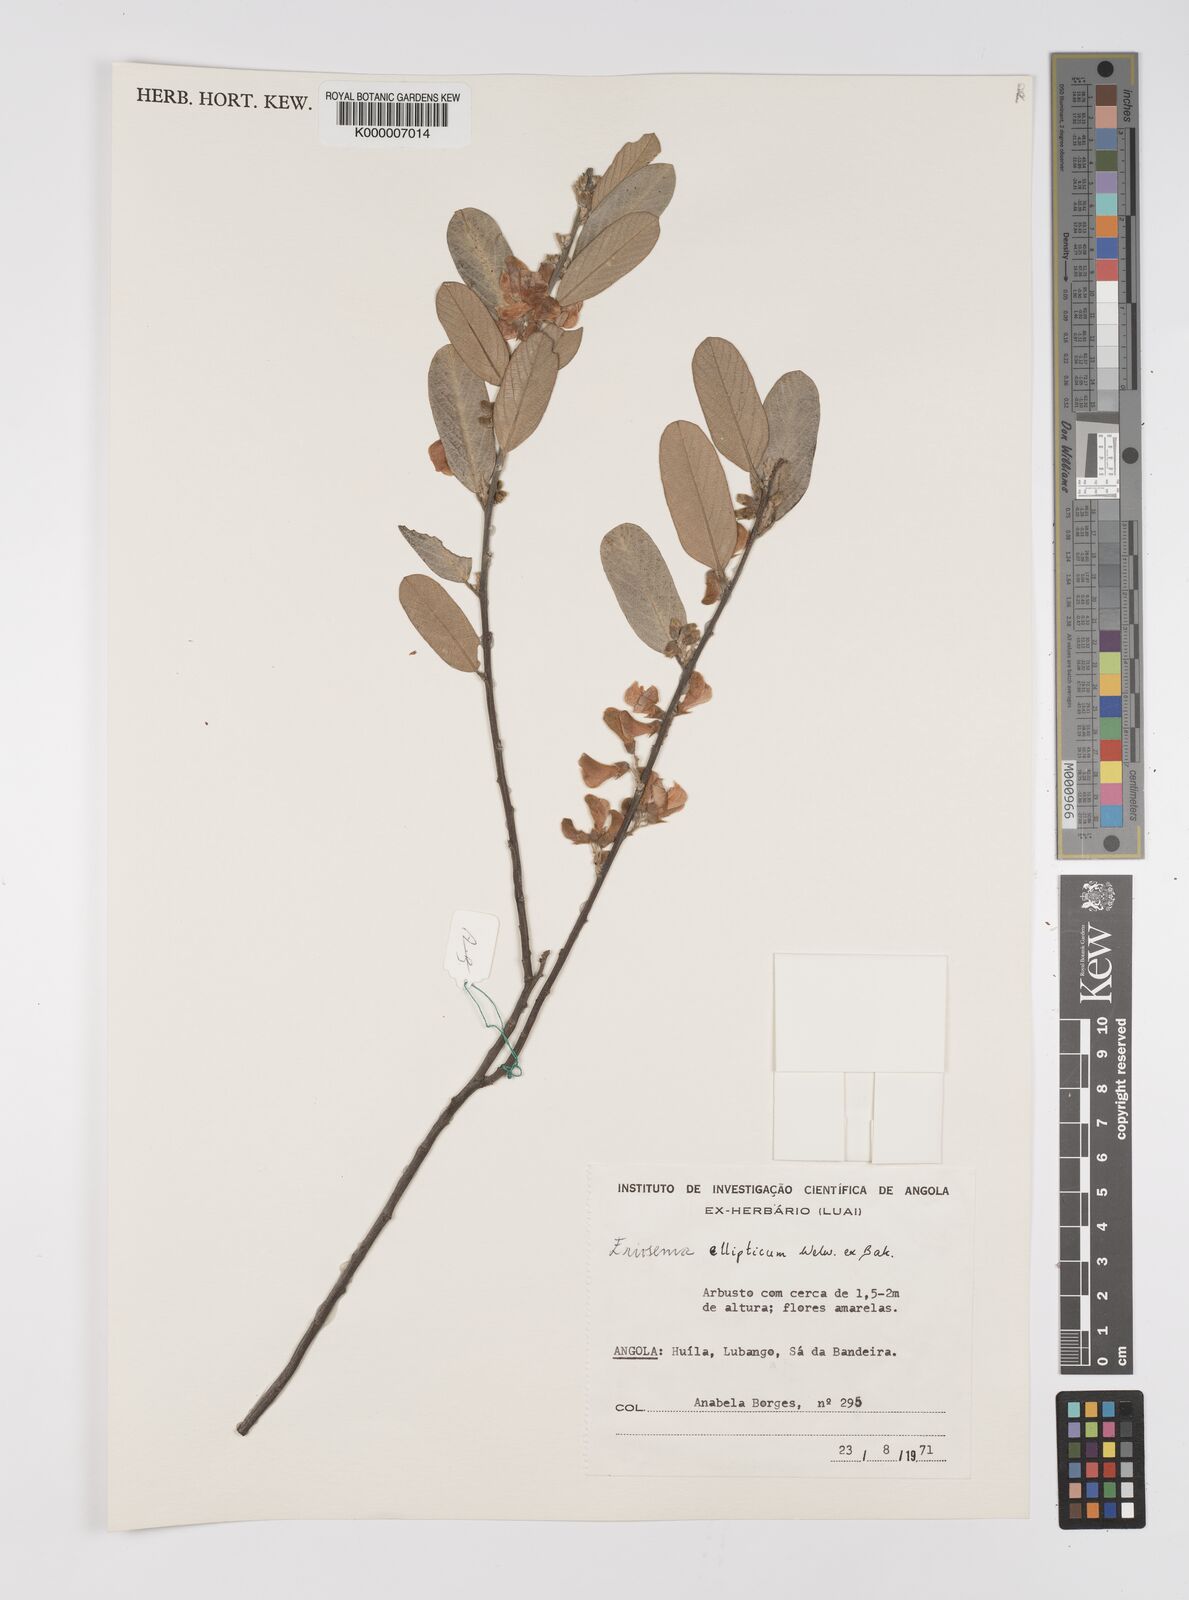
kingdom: Plantae
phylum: Tracheophyta
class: Magnoliopsida
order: Fabales
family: Fabaceae
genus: Eriosema
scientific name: Eriosema ellipticum
